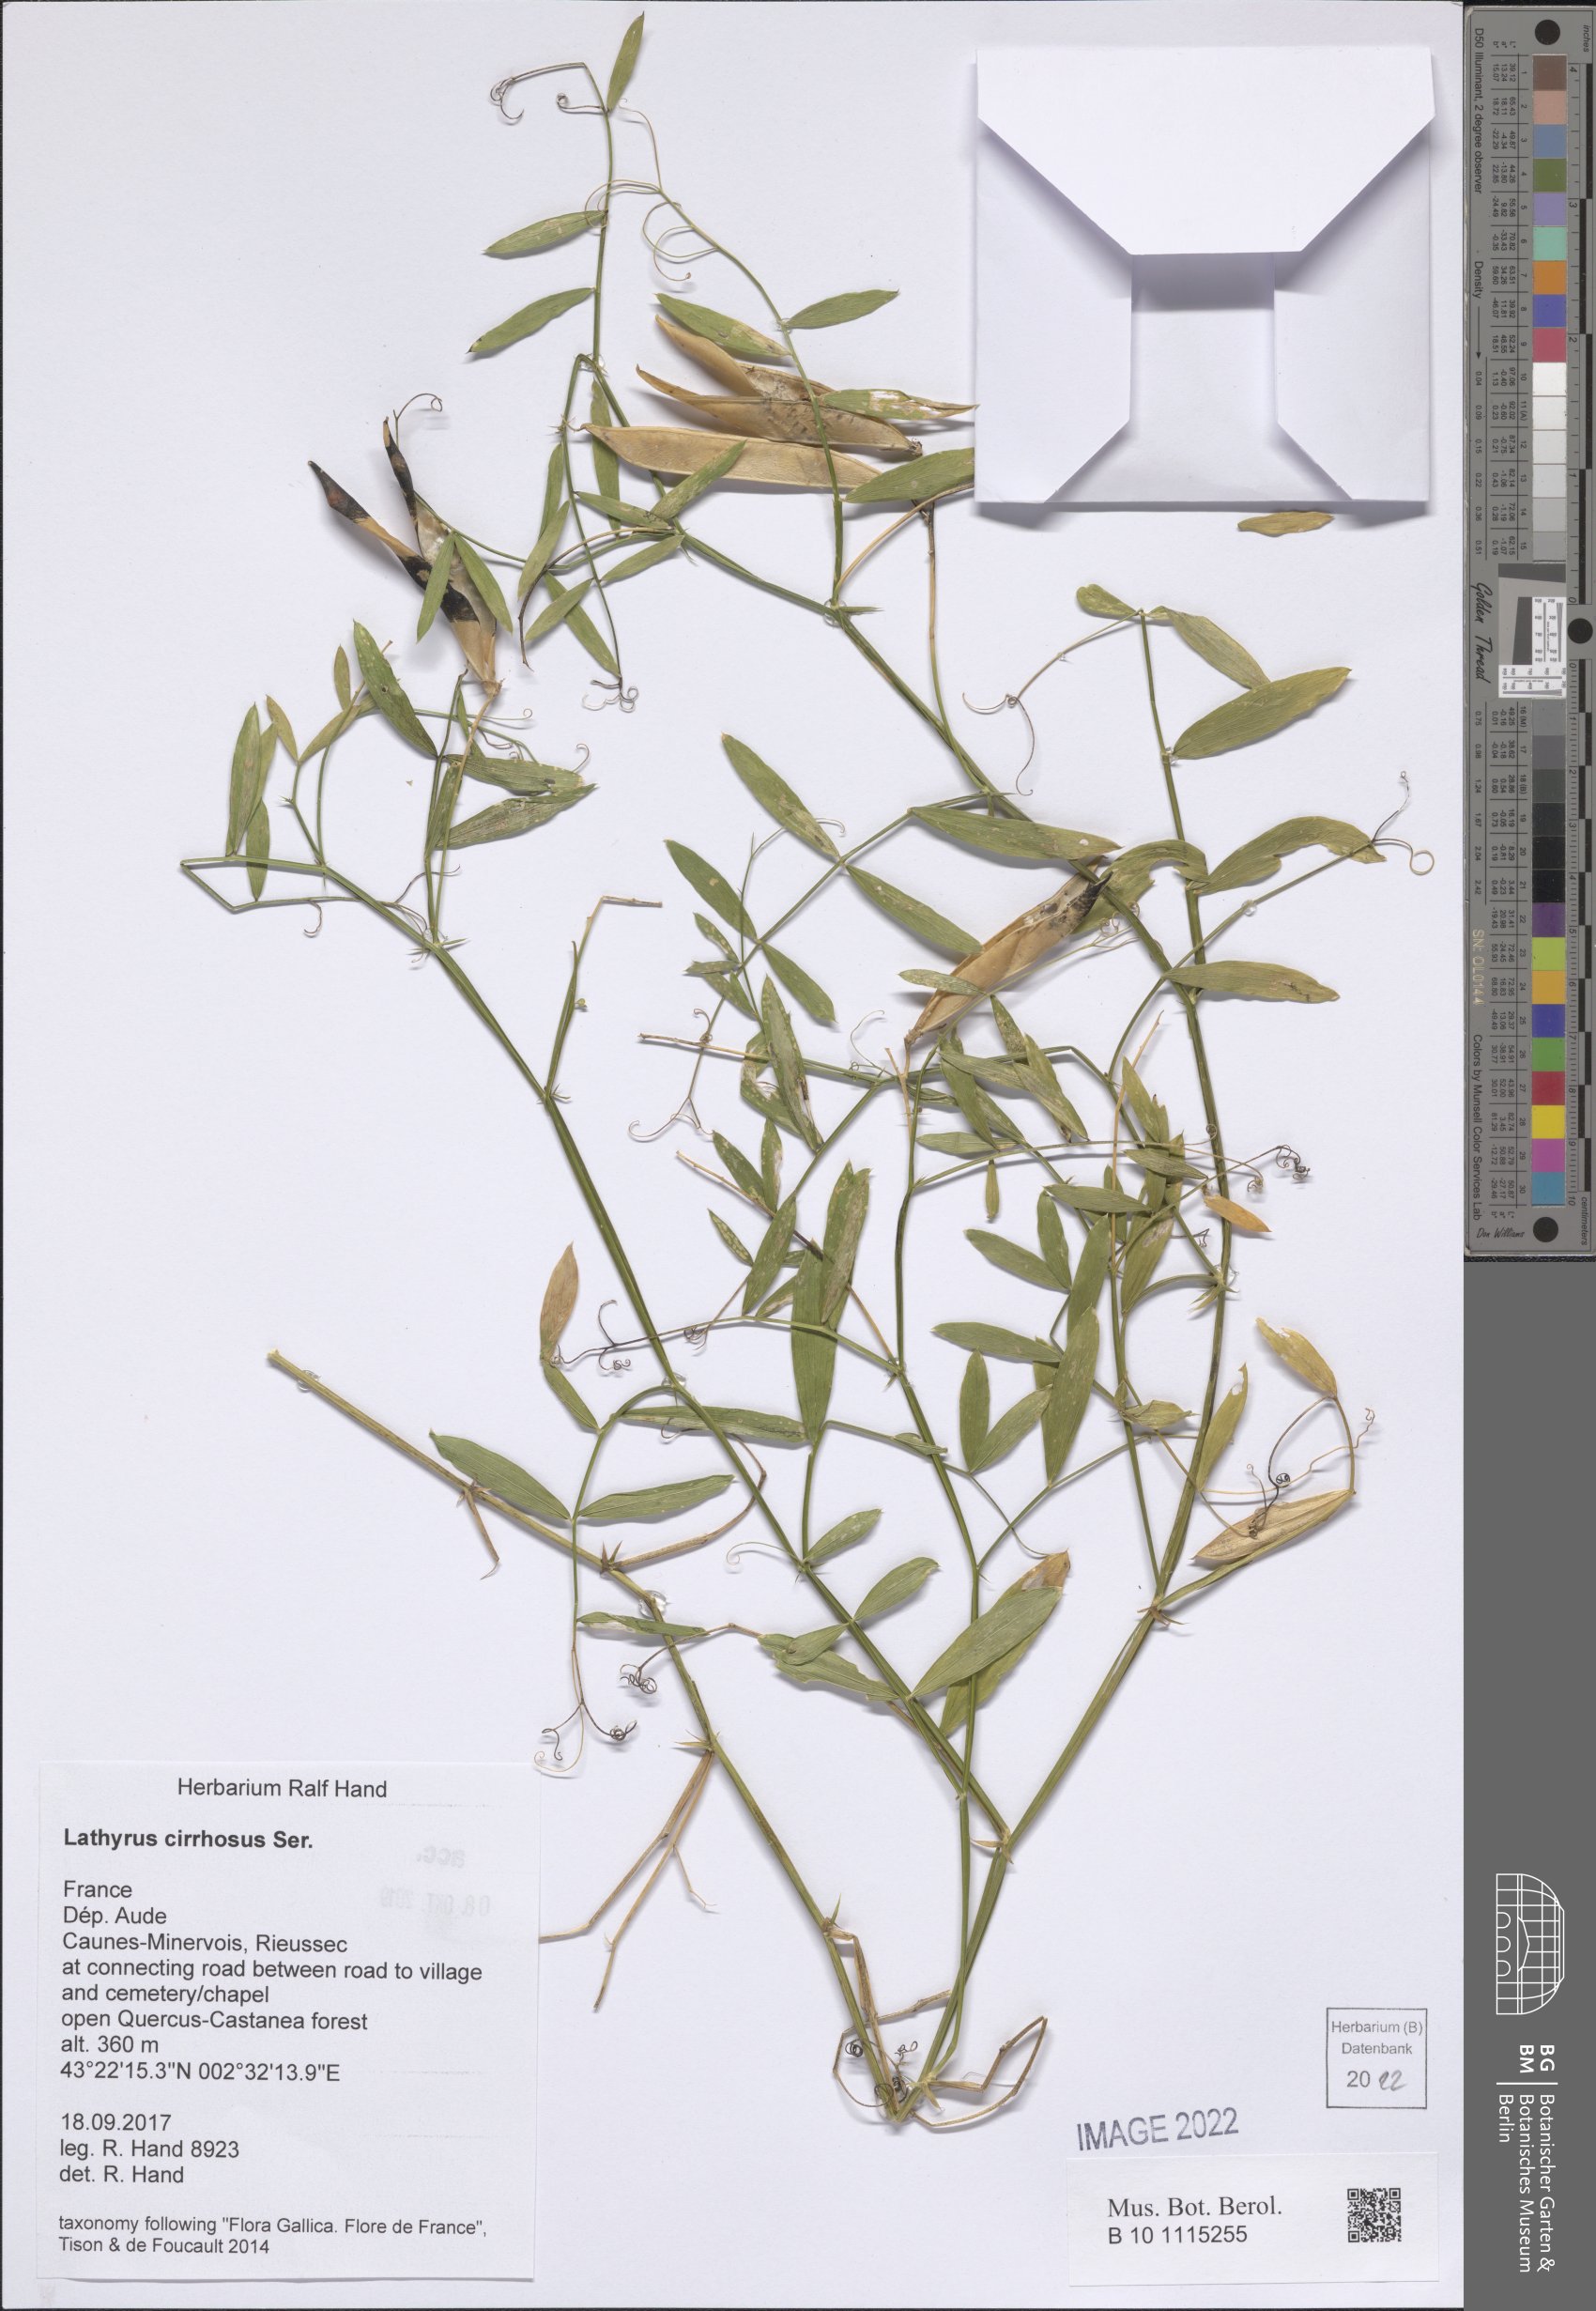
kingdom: Plantae
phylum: Tracheophyta
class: Magnoliopsida
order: Fabales
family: Fabaceae
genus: Lathyrus
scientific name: Lathyrus cirrhosus
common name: Cirrhose vetch
